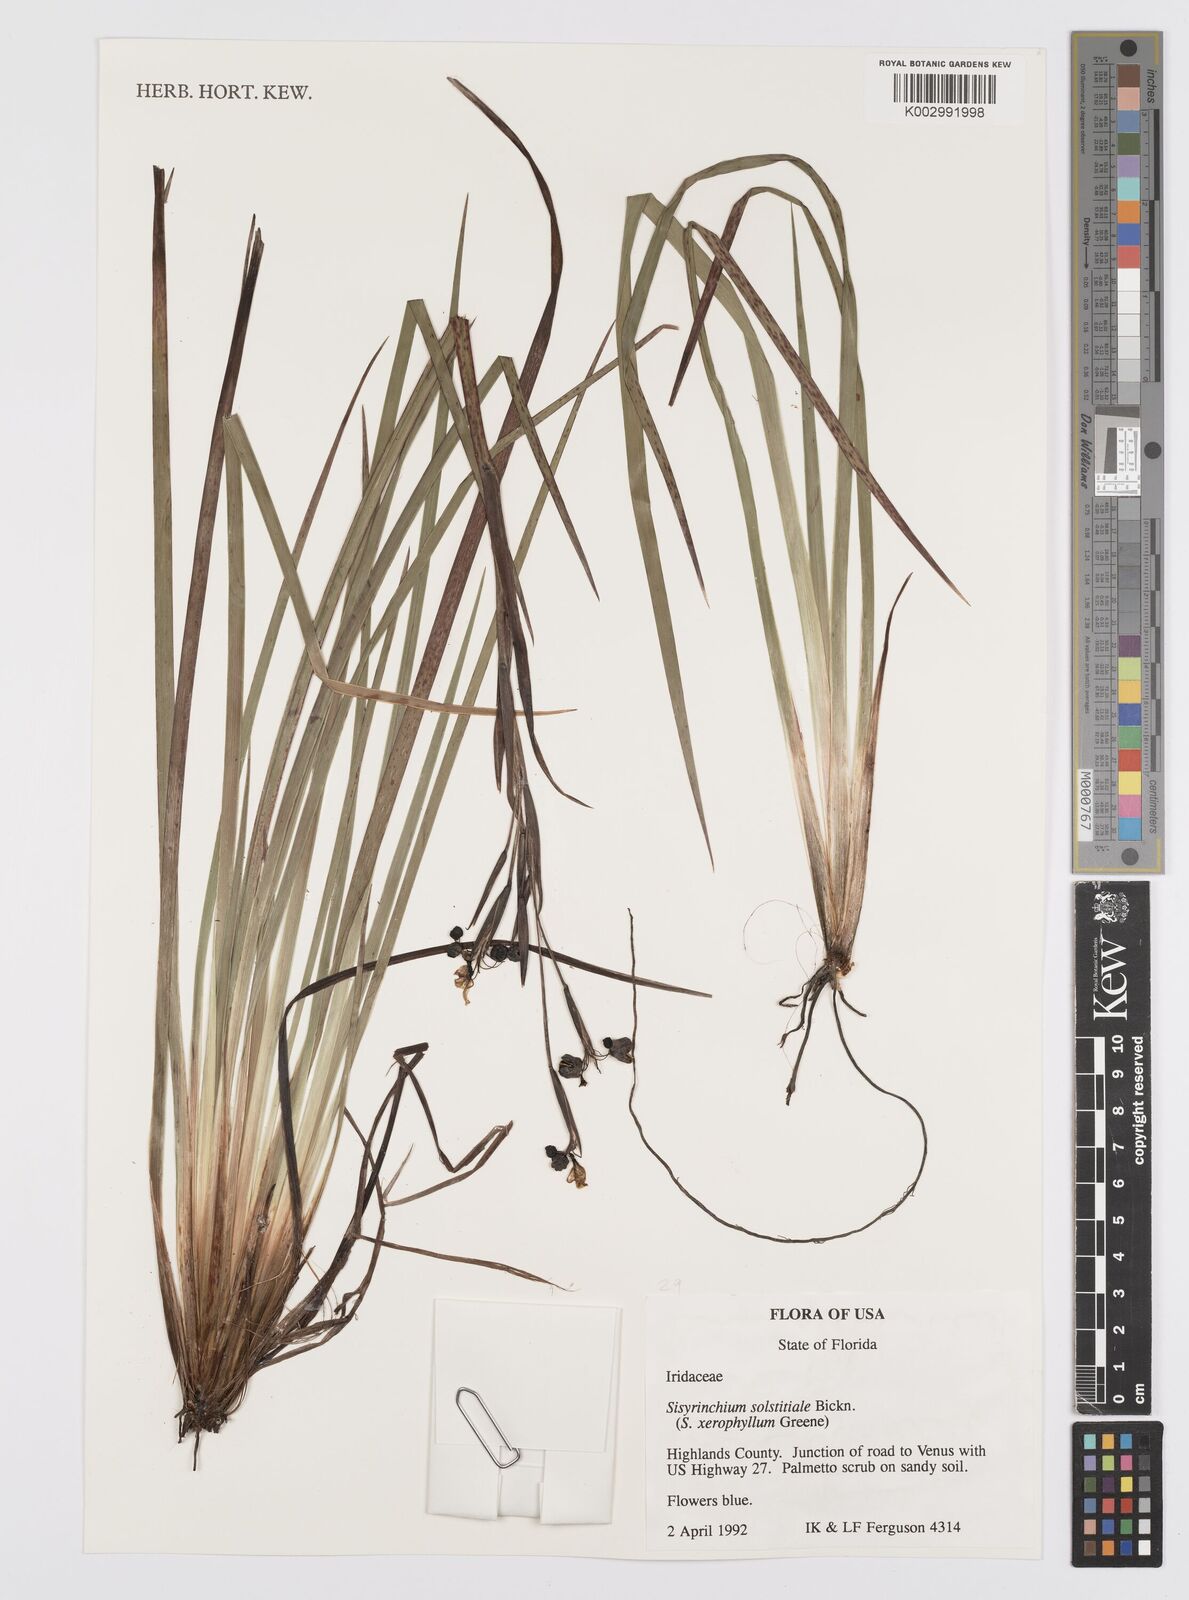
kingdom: Plantae
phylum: Tracheophyta
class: Liliopsida
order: Asparagales
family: Iridaceae
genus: Sisyrinchium
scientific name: Sisyrinchium xerophyllum
